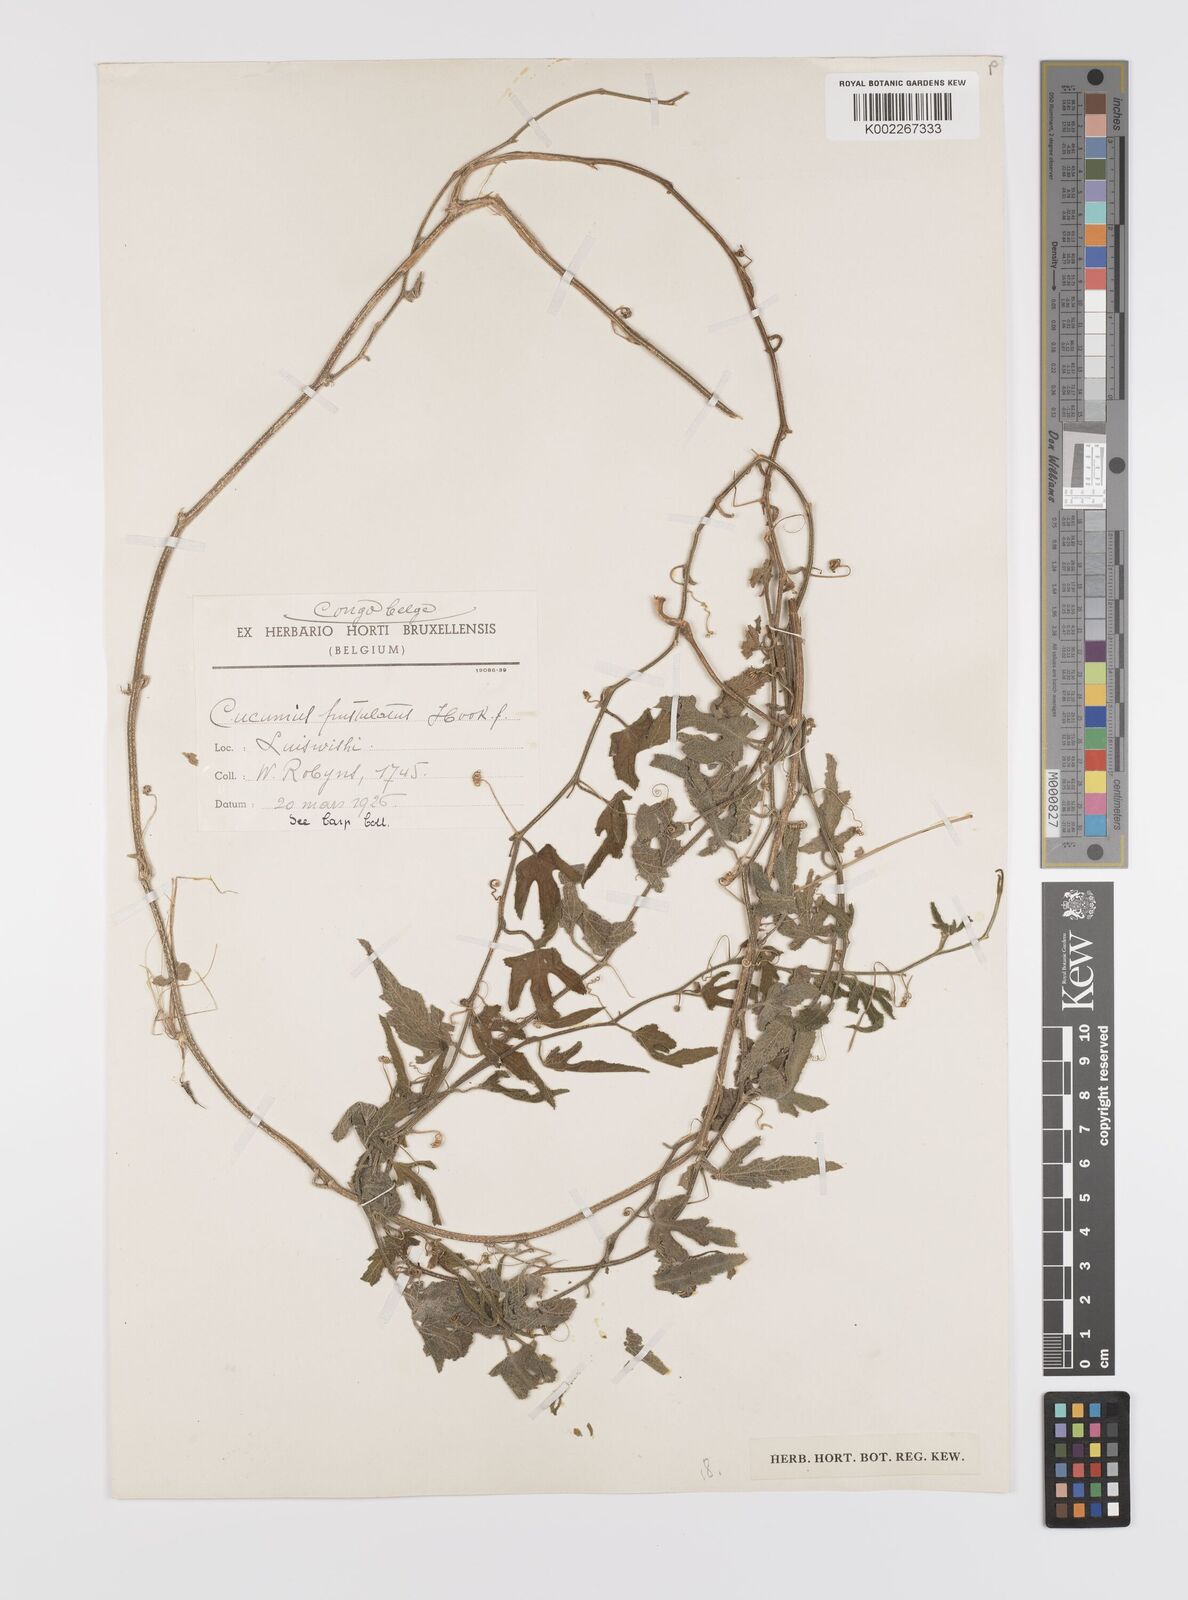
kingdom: Plantae
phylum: Tracheophyta
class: Magnoliopsida
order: Cucurbitales
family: Cucurbitaceae
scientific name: Cucurbitaceae
